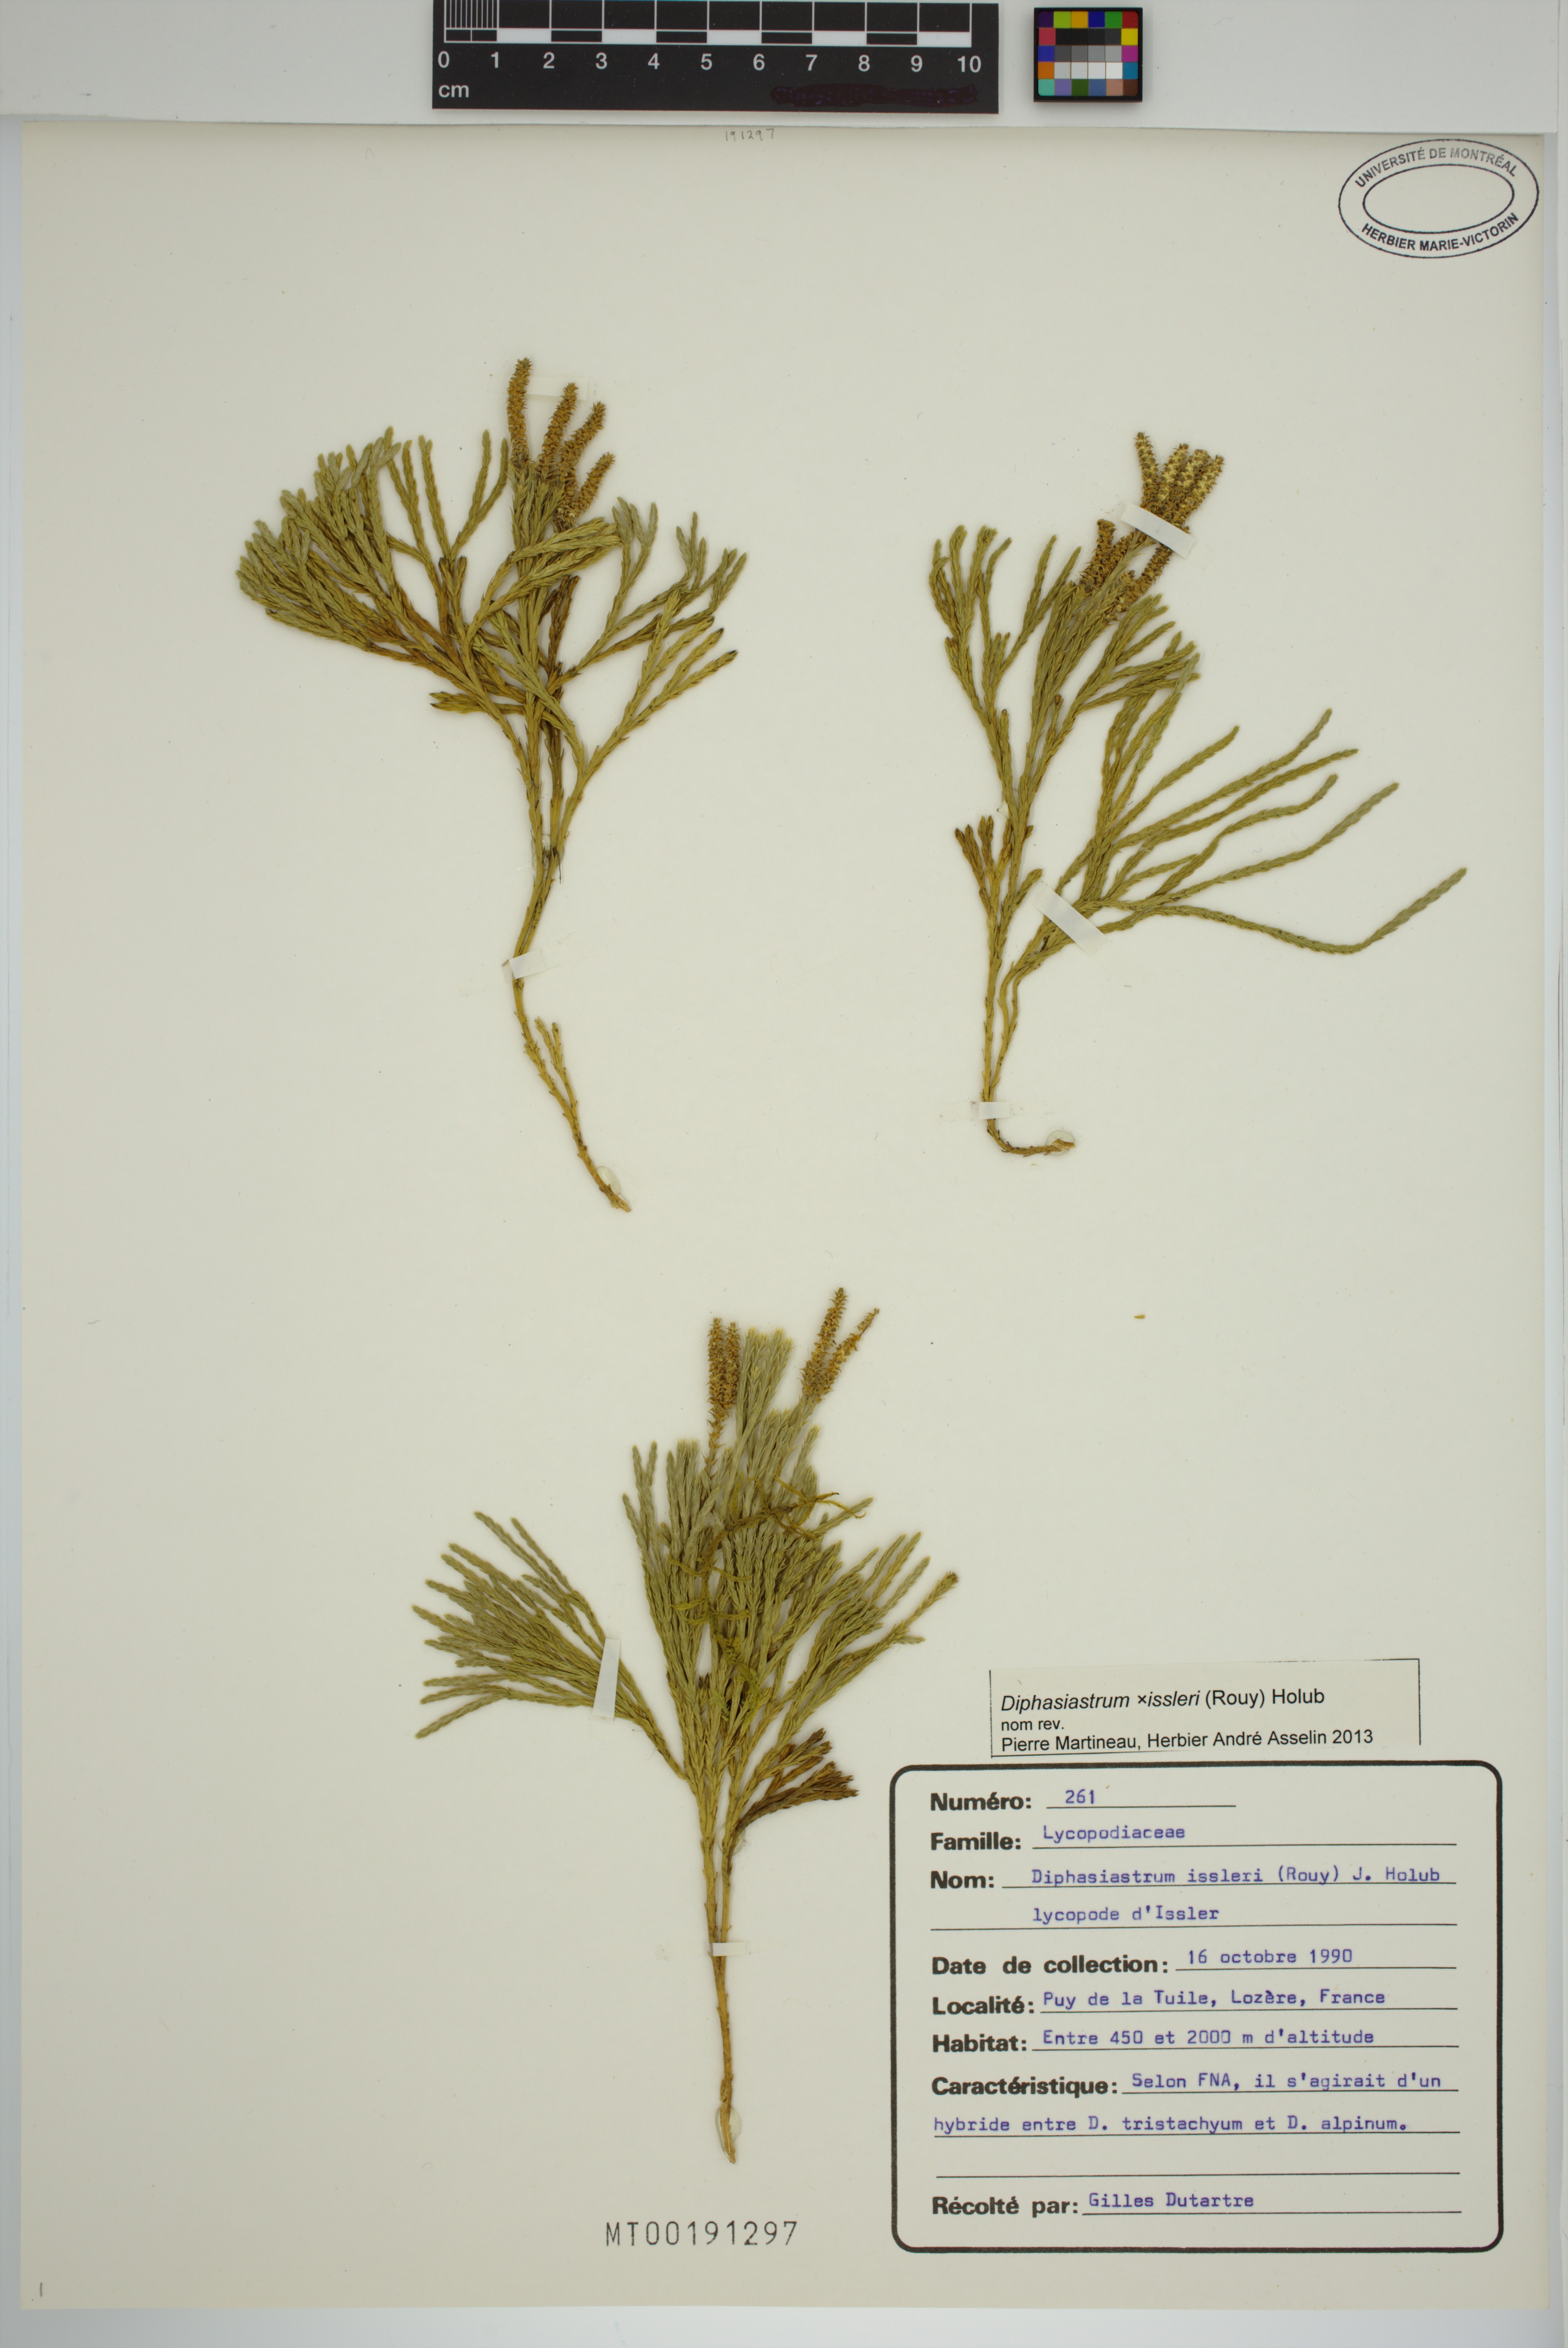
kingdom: Plantae
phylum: Tracheophyta
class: Lycopodiopsida
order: Lycopodiales
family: Lycopodiaceae
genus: Diphasiastrum
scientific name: Diphasiastrum issleri
